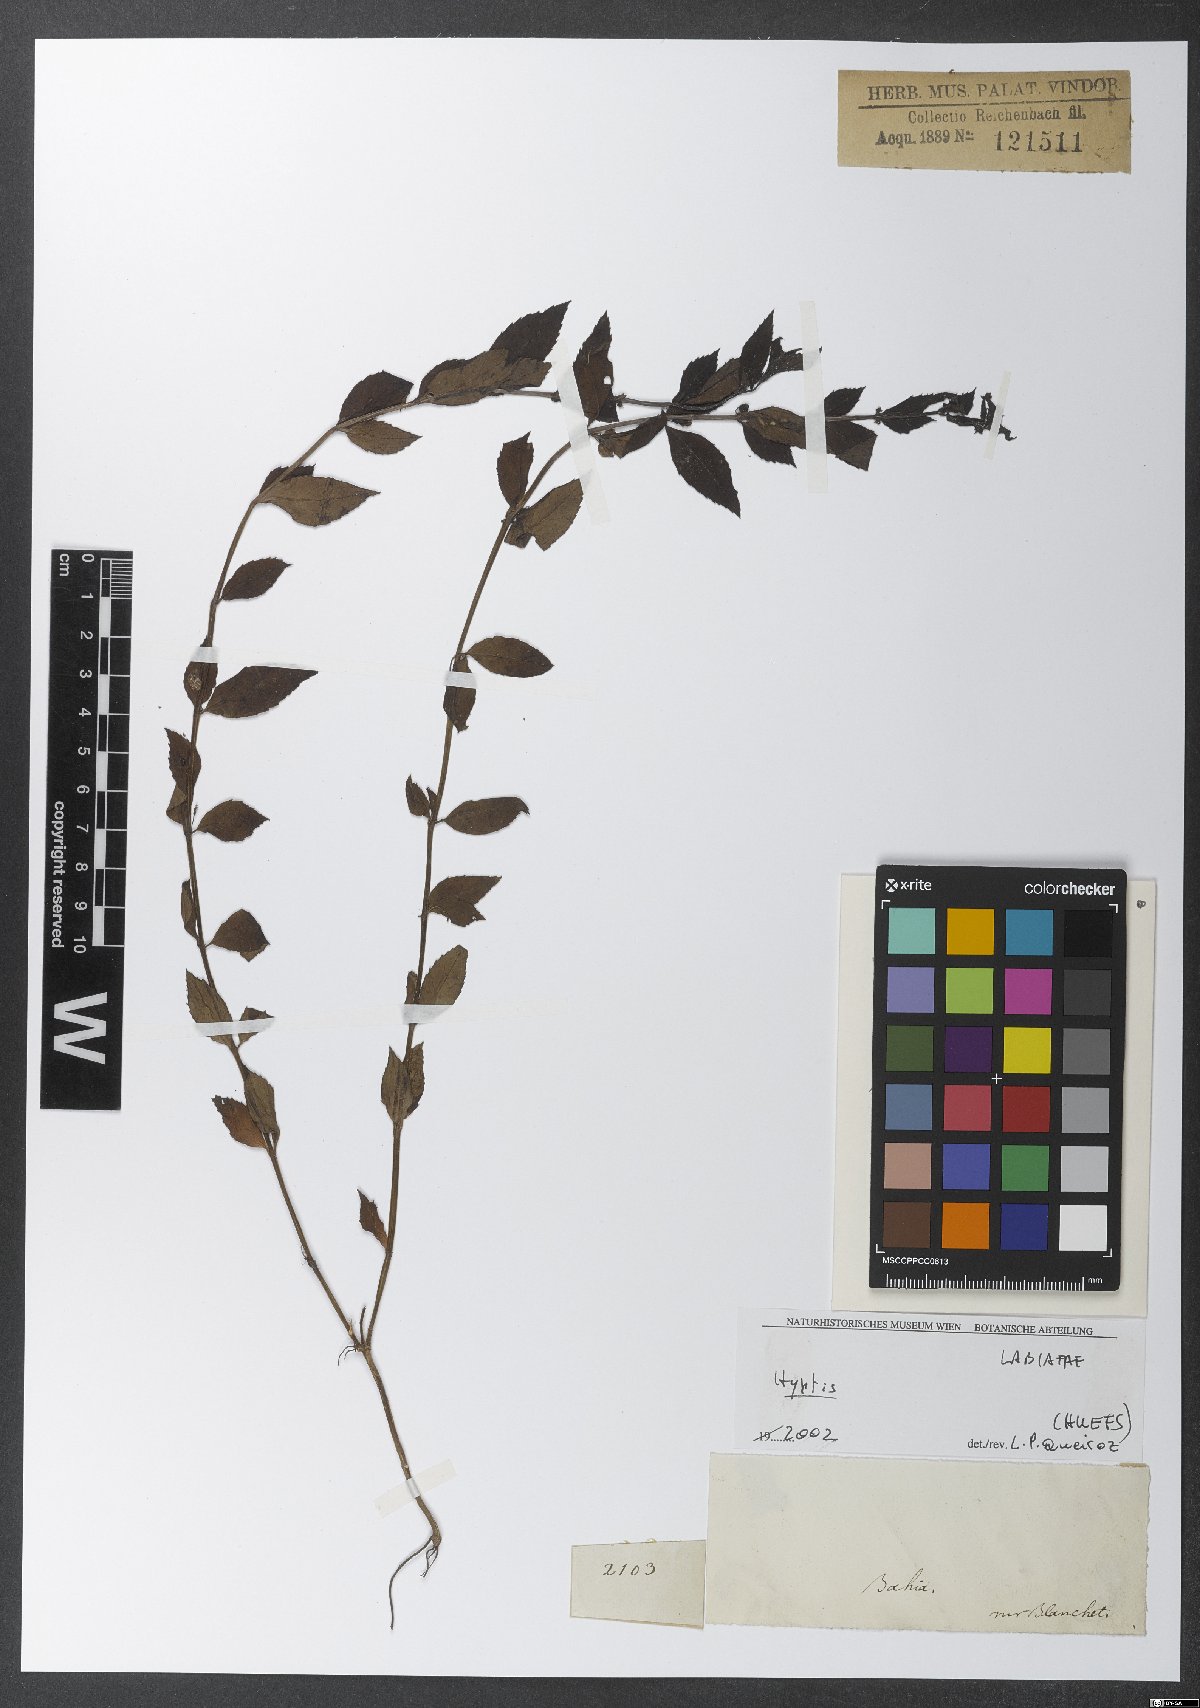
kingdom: Plantae
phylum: Tracheophyta
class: Magnoliopsida
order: Lamiales
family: Lamiaceae
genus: Hyptis
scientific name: Hyptis
